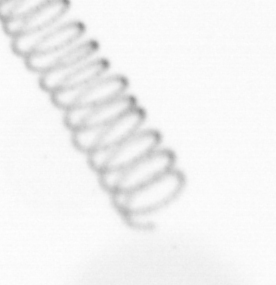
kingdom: Chromista
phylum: Ochrophyta
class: Bacillariophyceae
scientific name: Bacillariophyceae
